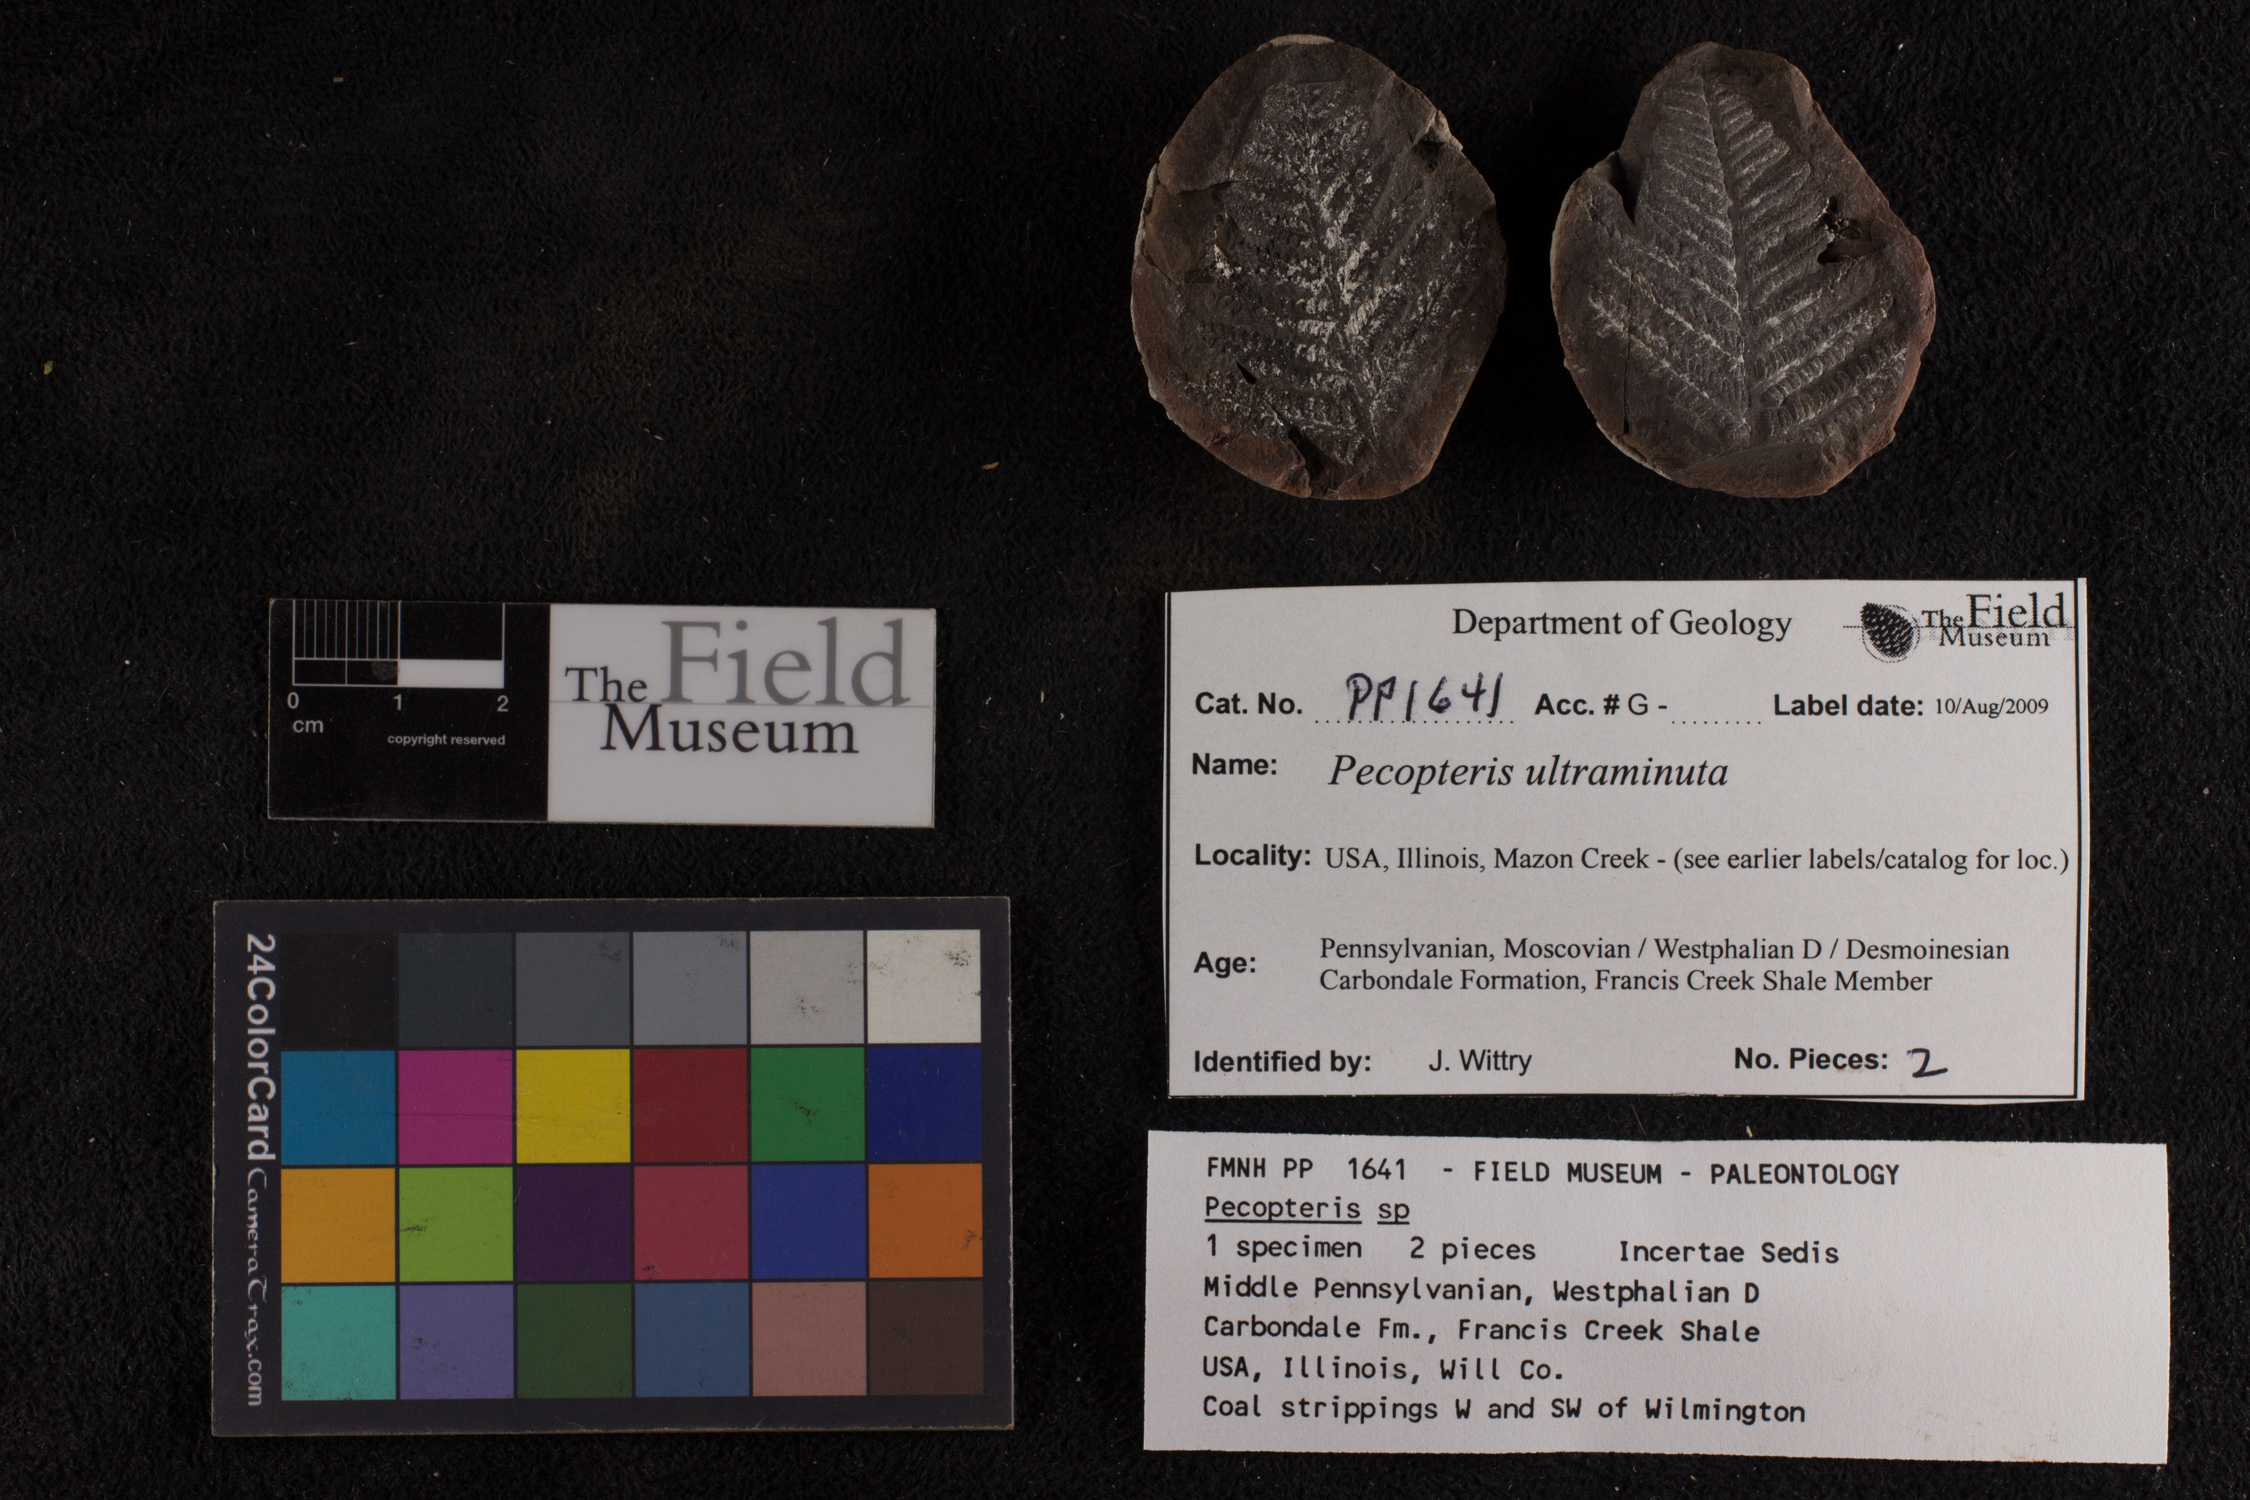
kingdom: Plantae
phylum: Tracheophyta
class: Polypodiopsida
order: Marattiales
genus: Cyathocarpus
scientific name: Cyathocarpus
